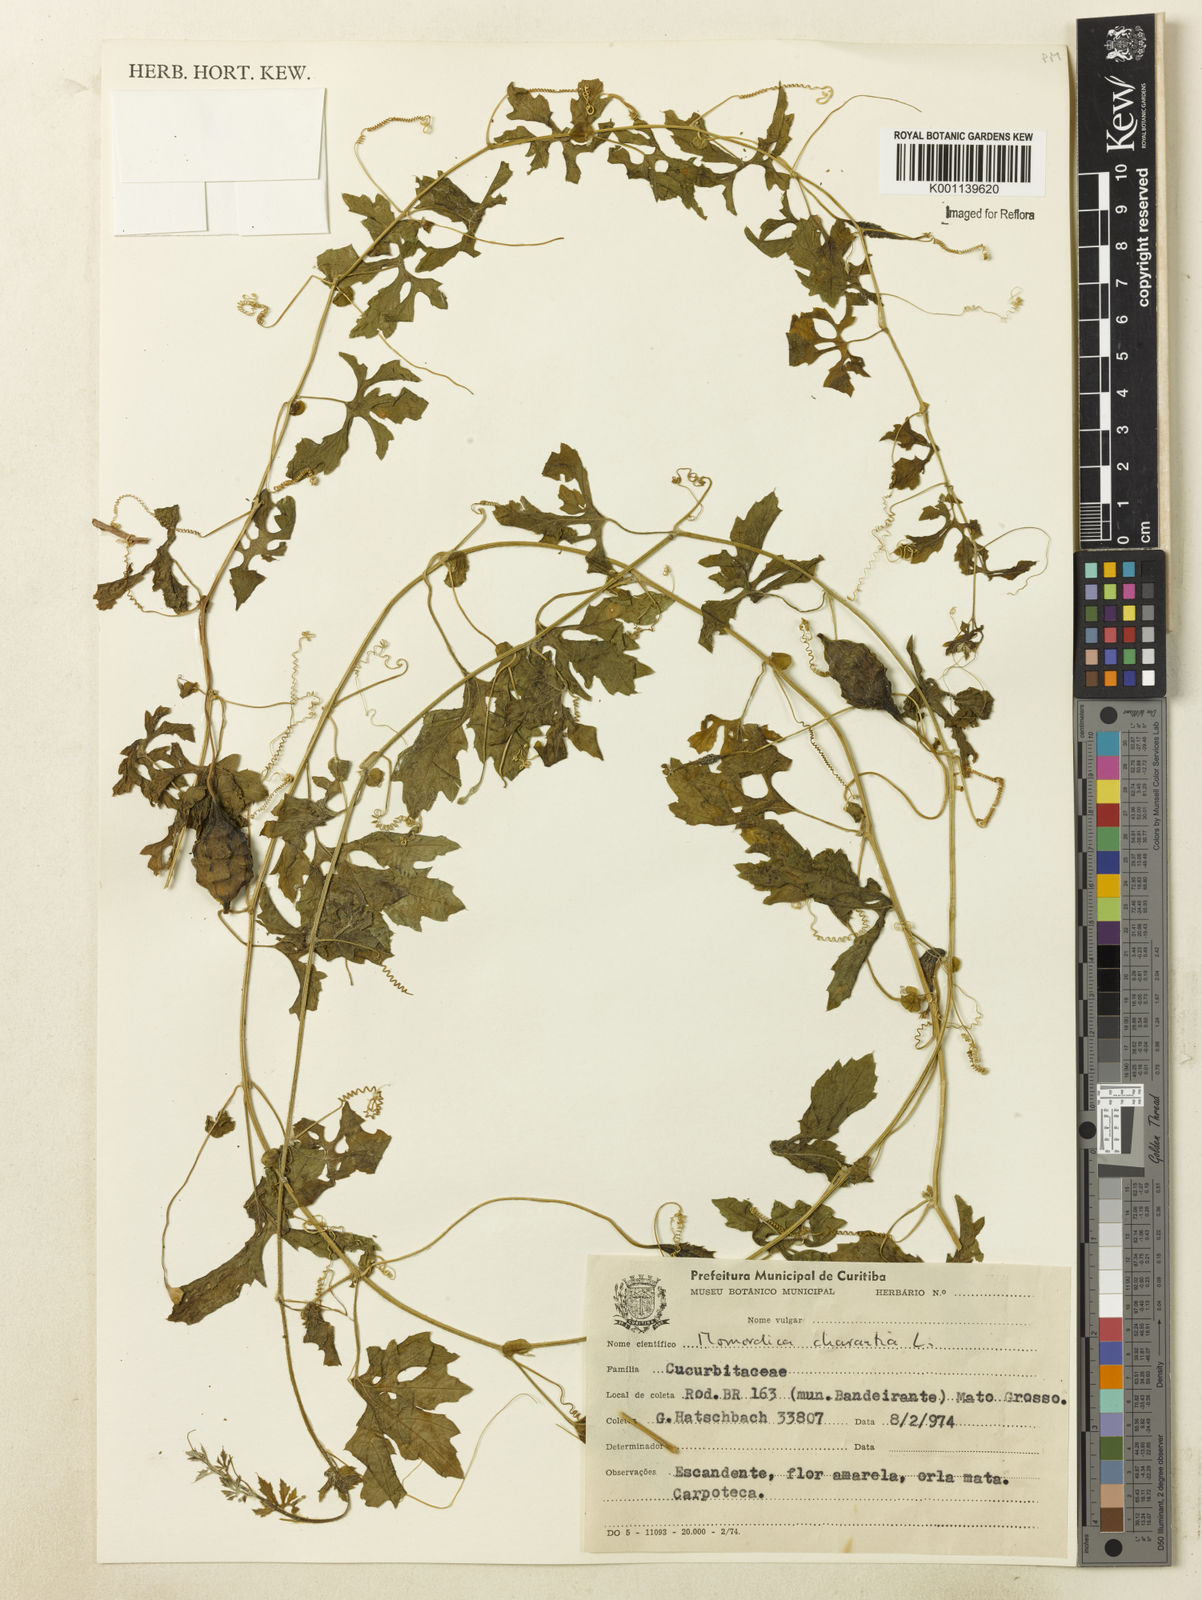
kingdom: Plantae
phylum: Tracheophyta
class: Magnoliopsida
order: Cucurbitales
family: Cucurbitaceae
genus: Momordica
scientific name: Momordica charantia
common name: Balsampear
